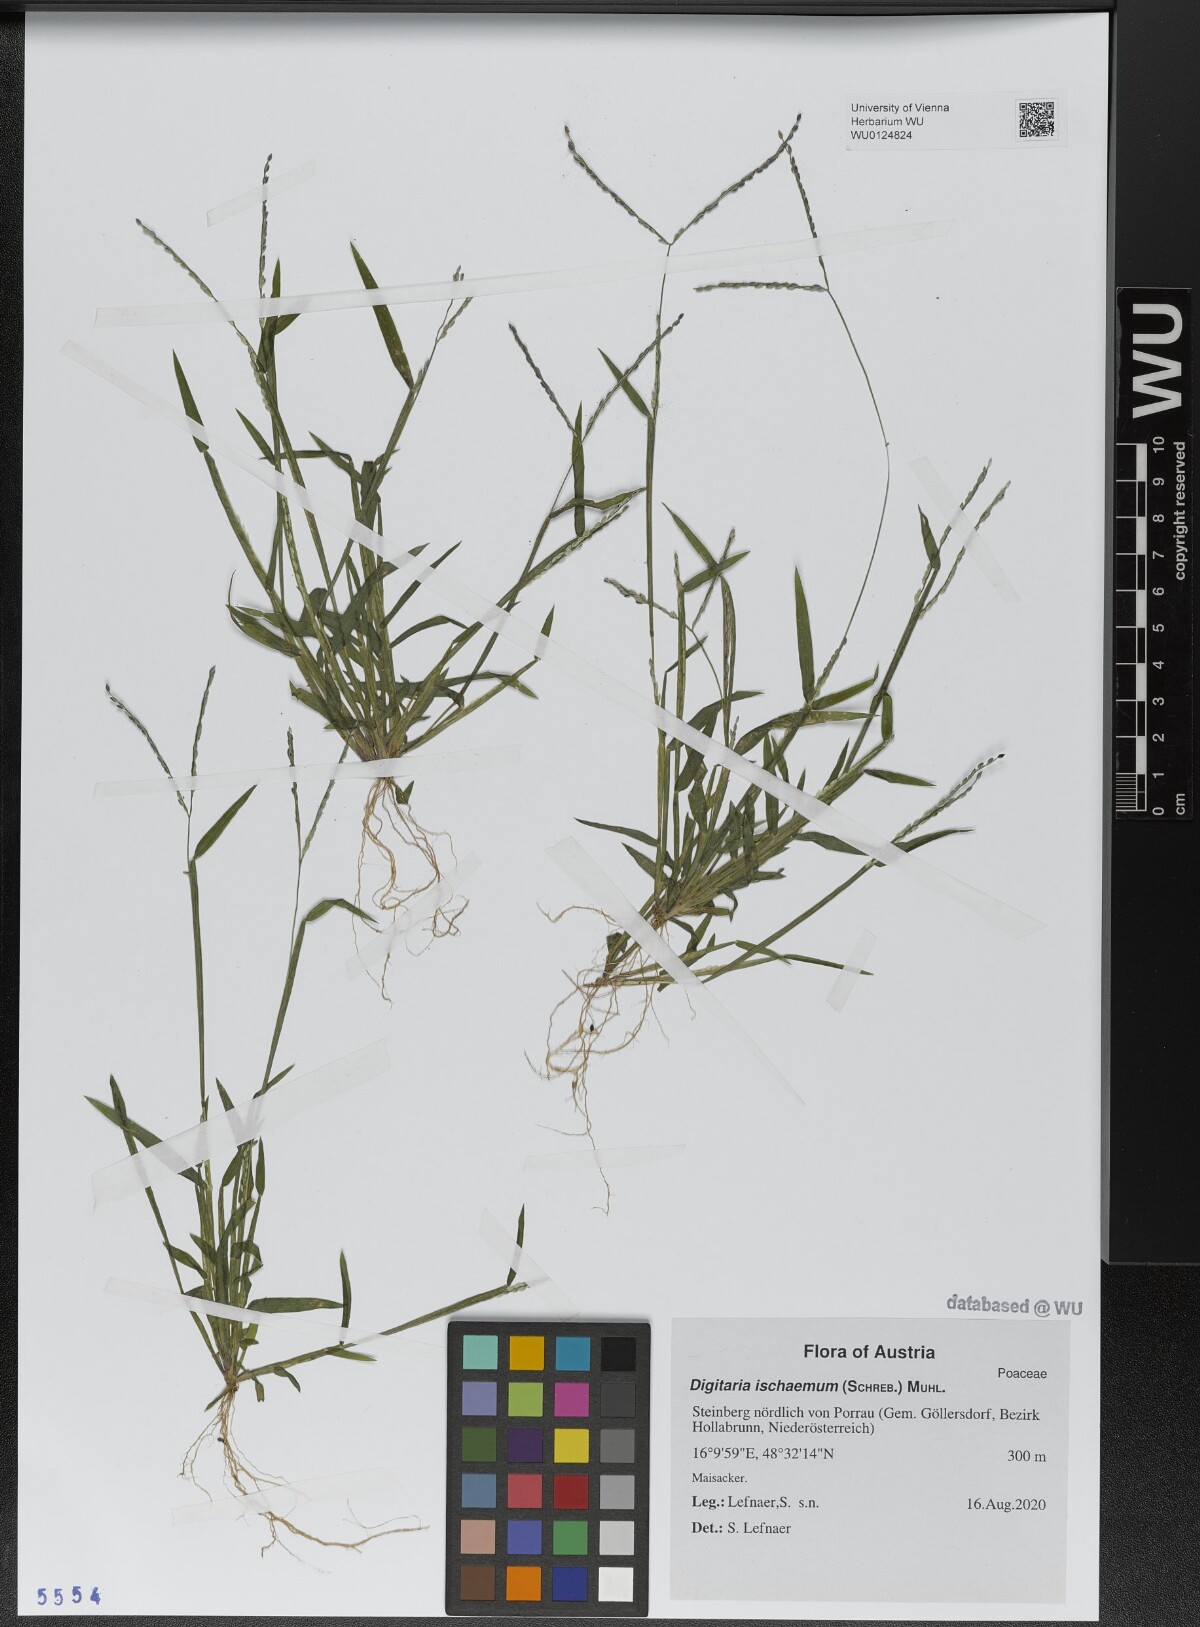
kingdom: Plantae
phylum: Tracheophyta
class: Liliopsida
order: Poales
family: Poaceae
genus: Digitaria
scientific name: Digitaria ischaemum
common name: Smooth crabgrass
